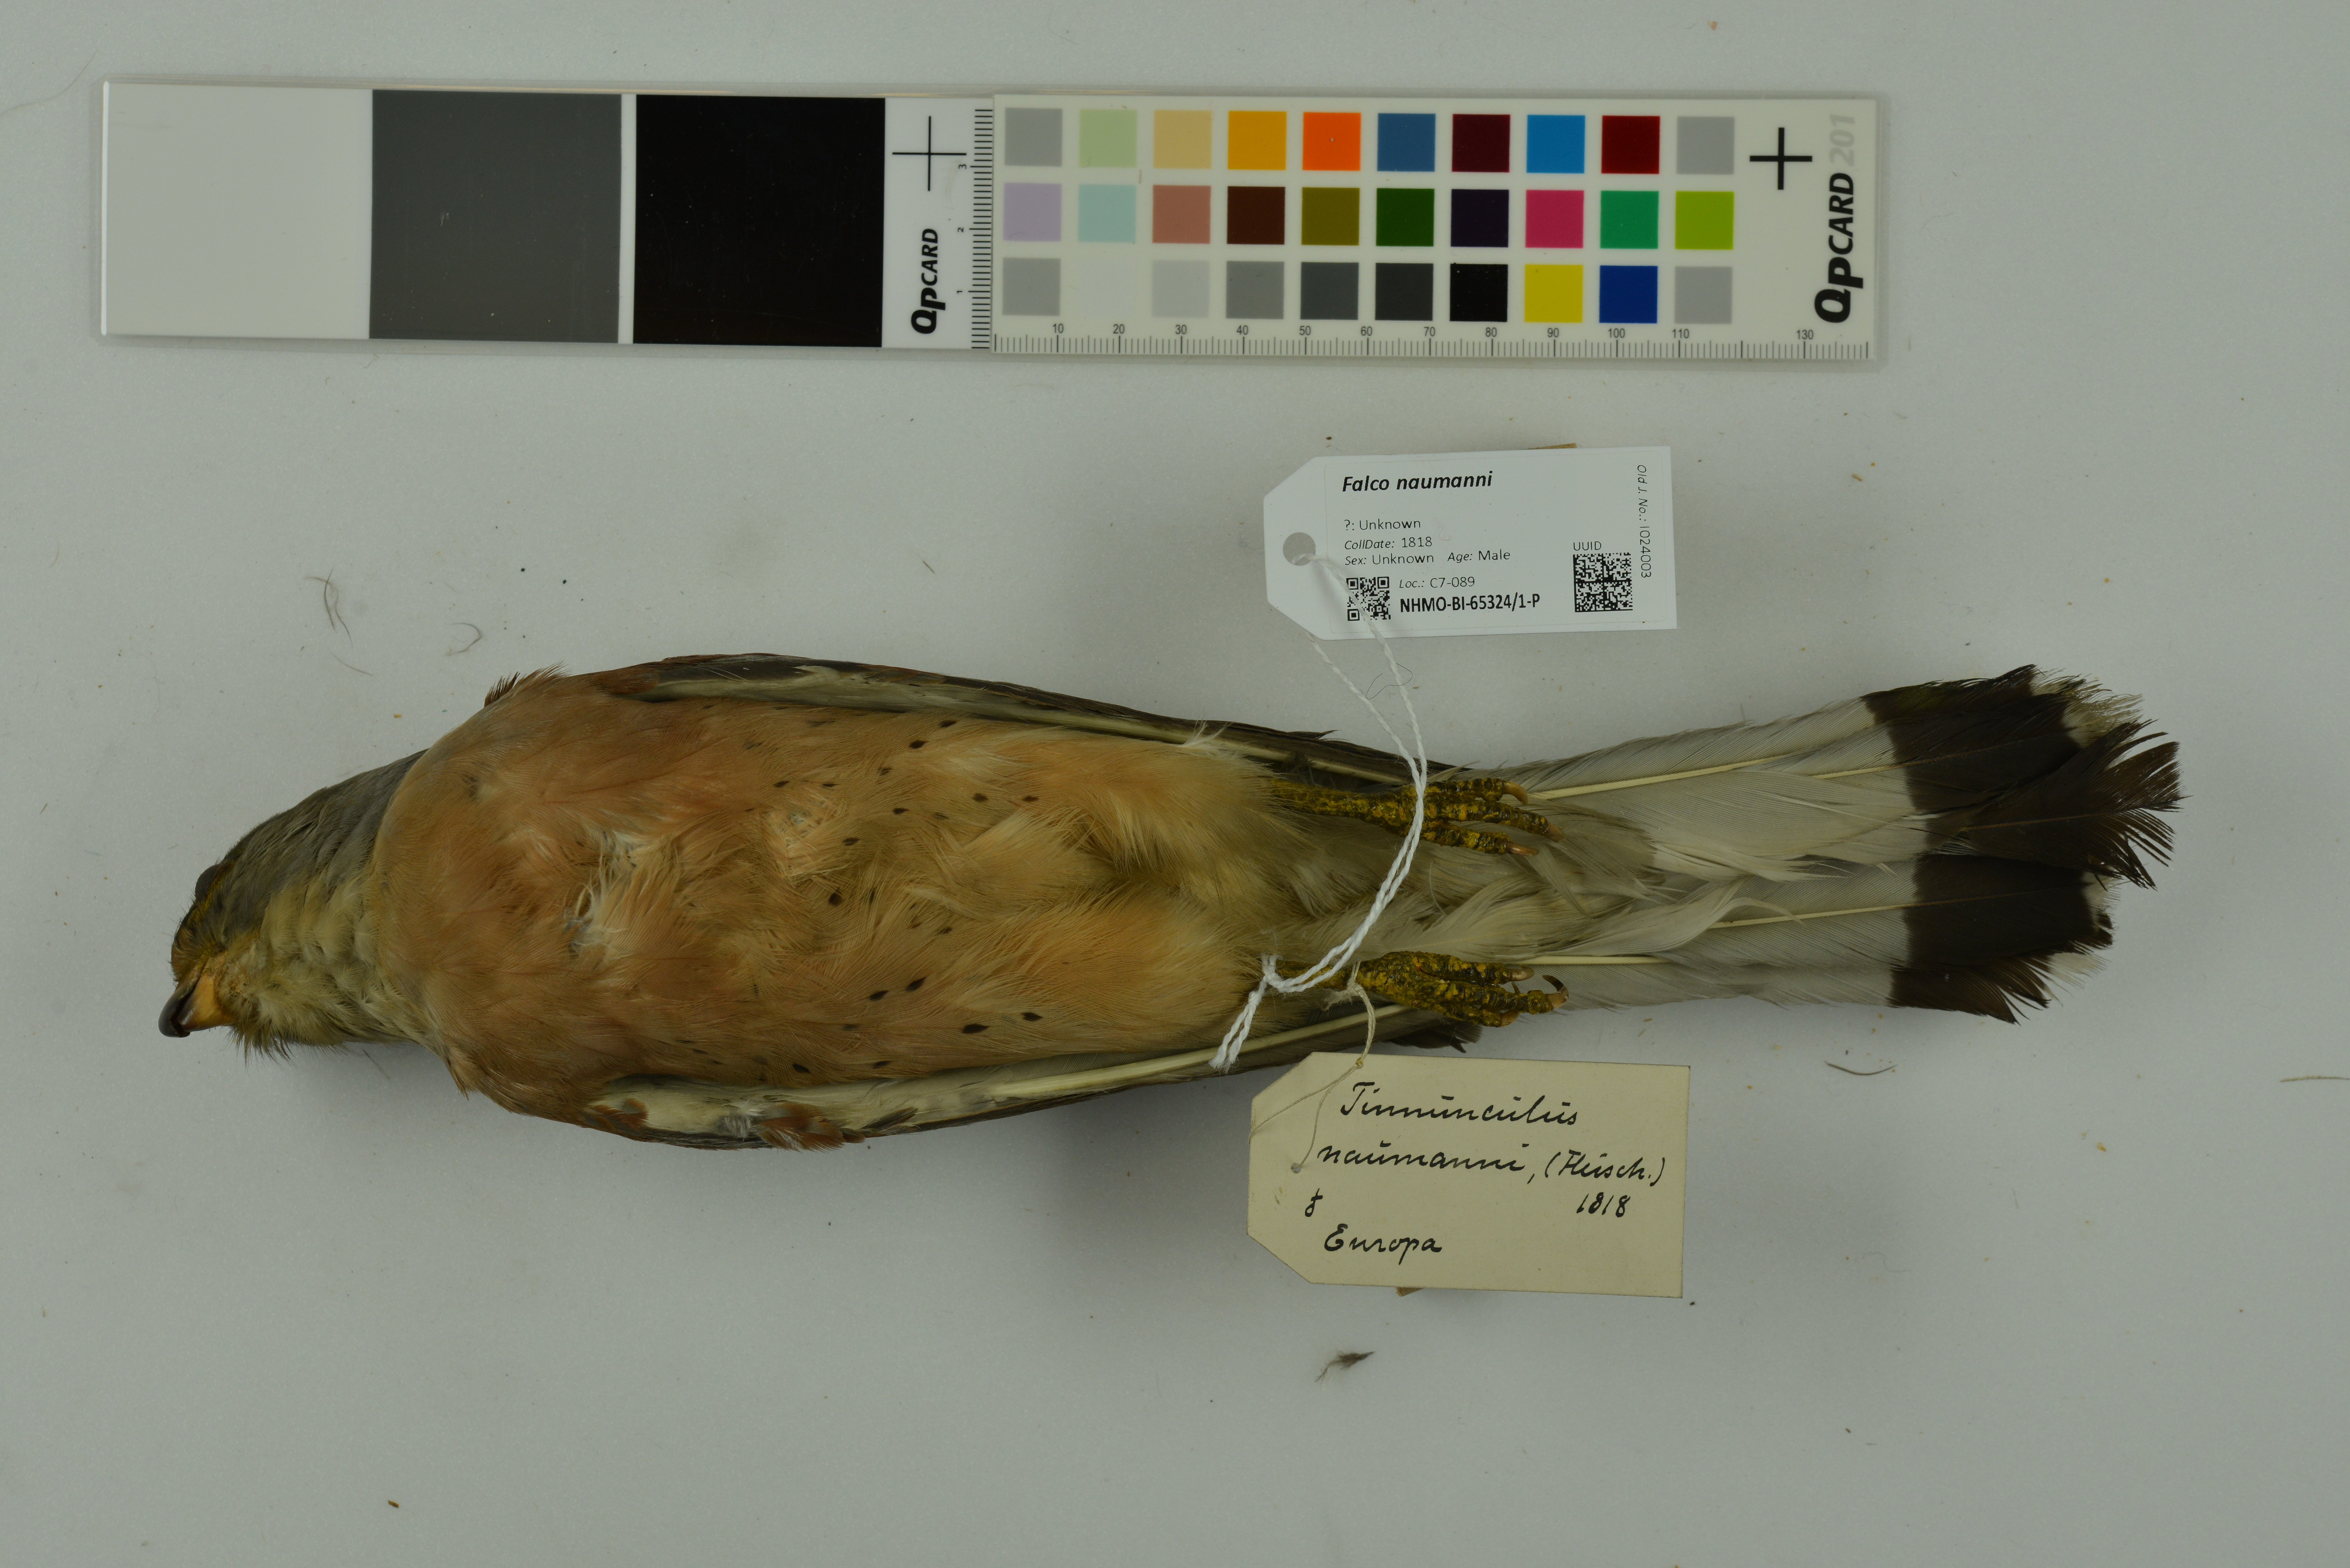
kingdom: Animalia
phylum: Chordata
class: Aves
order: Falconiformes
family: Falconidae
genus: Falco
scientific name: Falco naumanni
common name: Lesser kestrel
